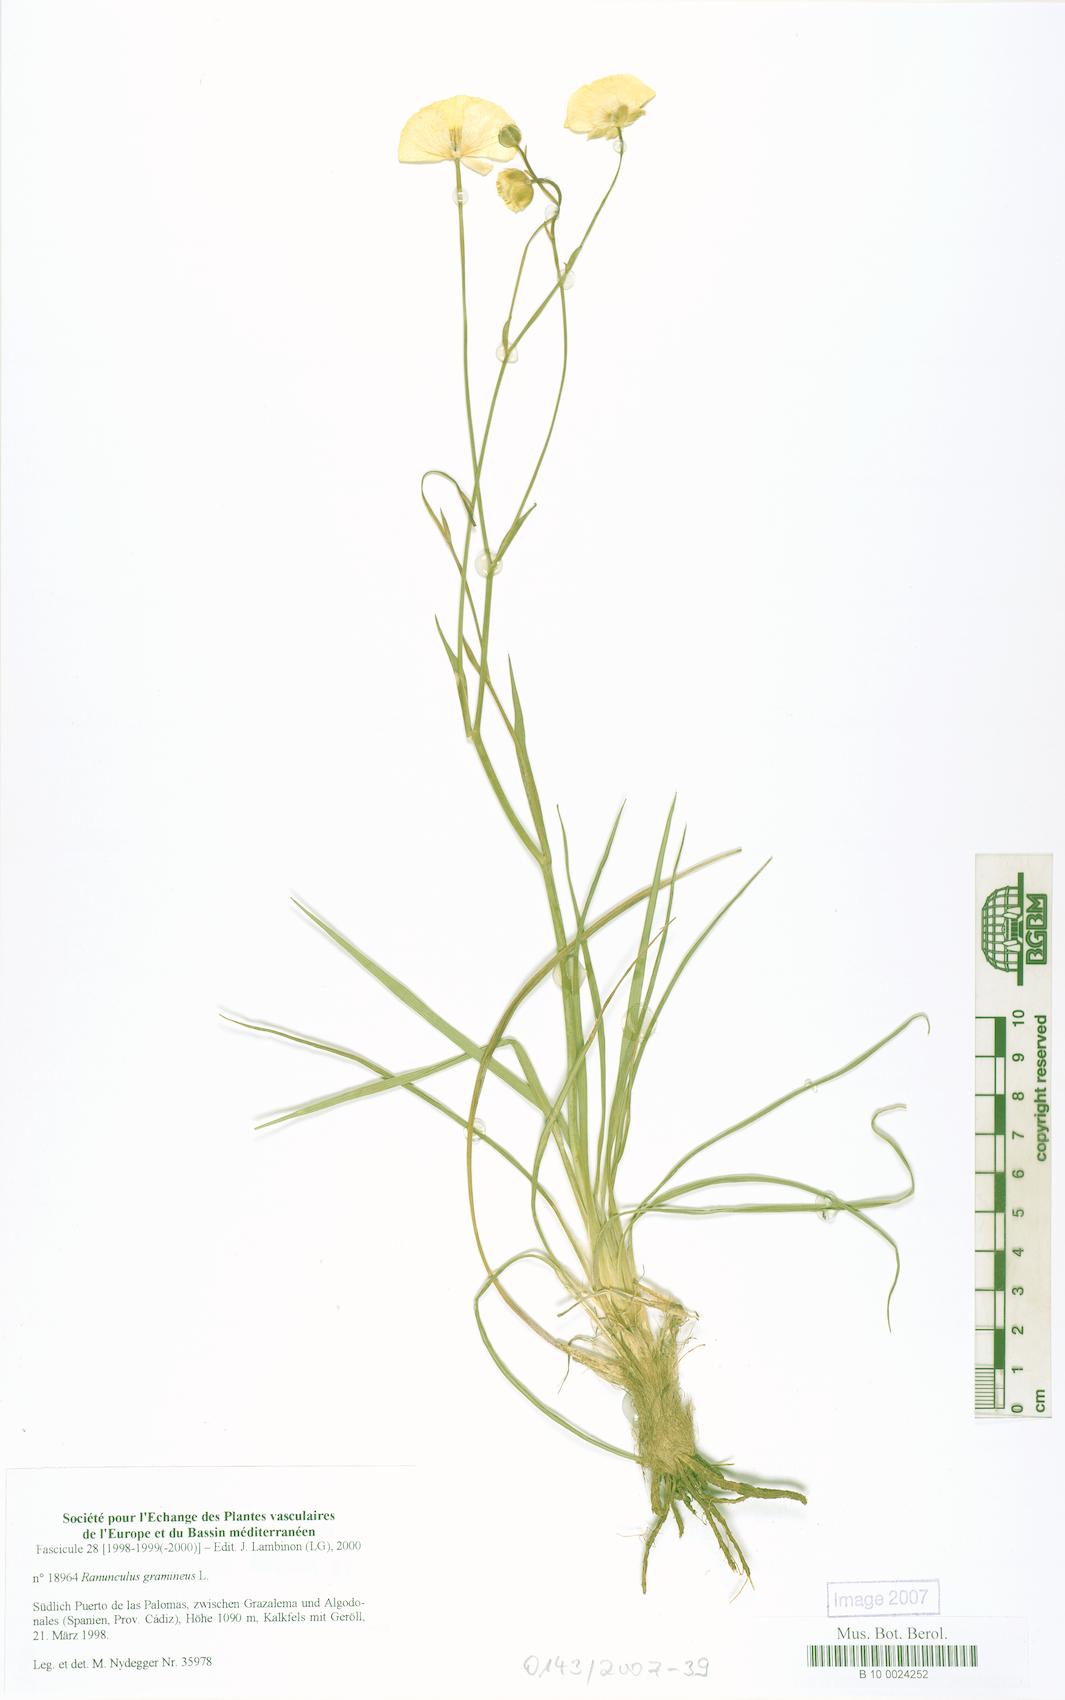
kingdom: Plantae
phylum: Tracheophyta
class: Magnoliopsida
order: Ranunculales
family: Ranunculaceae
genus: Ranunculus
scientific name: Ranunculus gramineus
